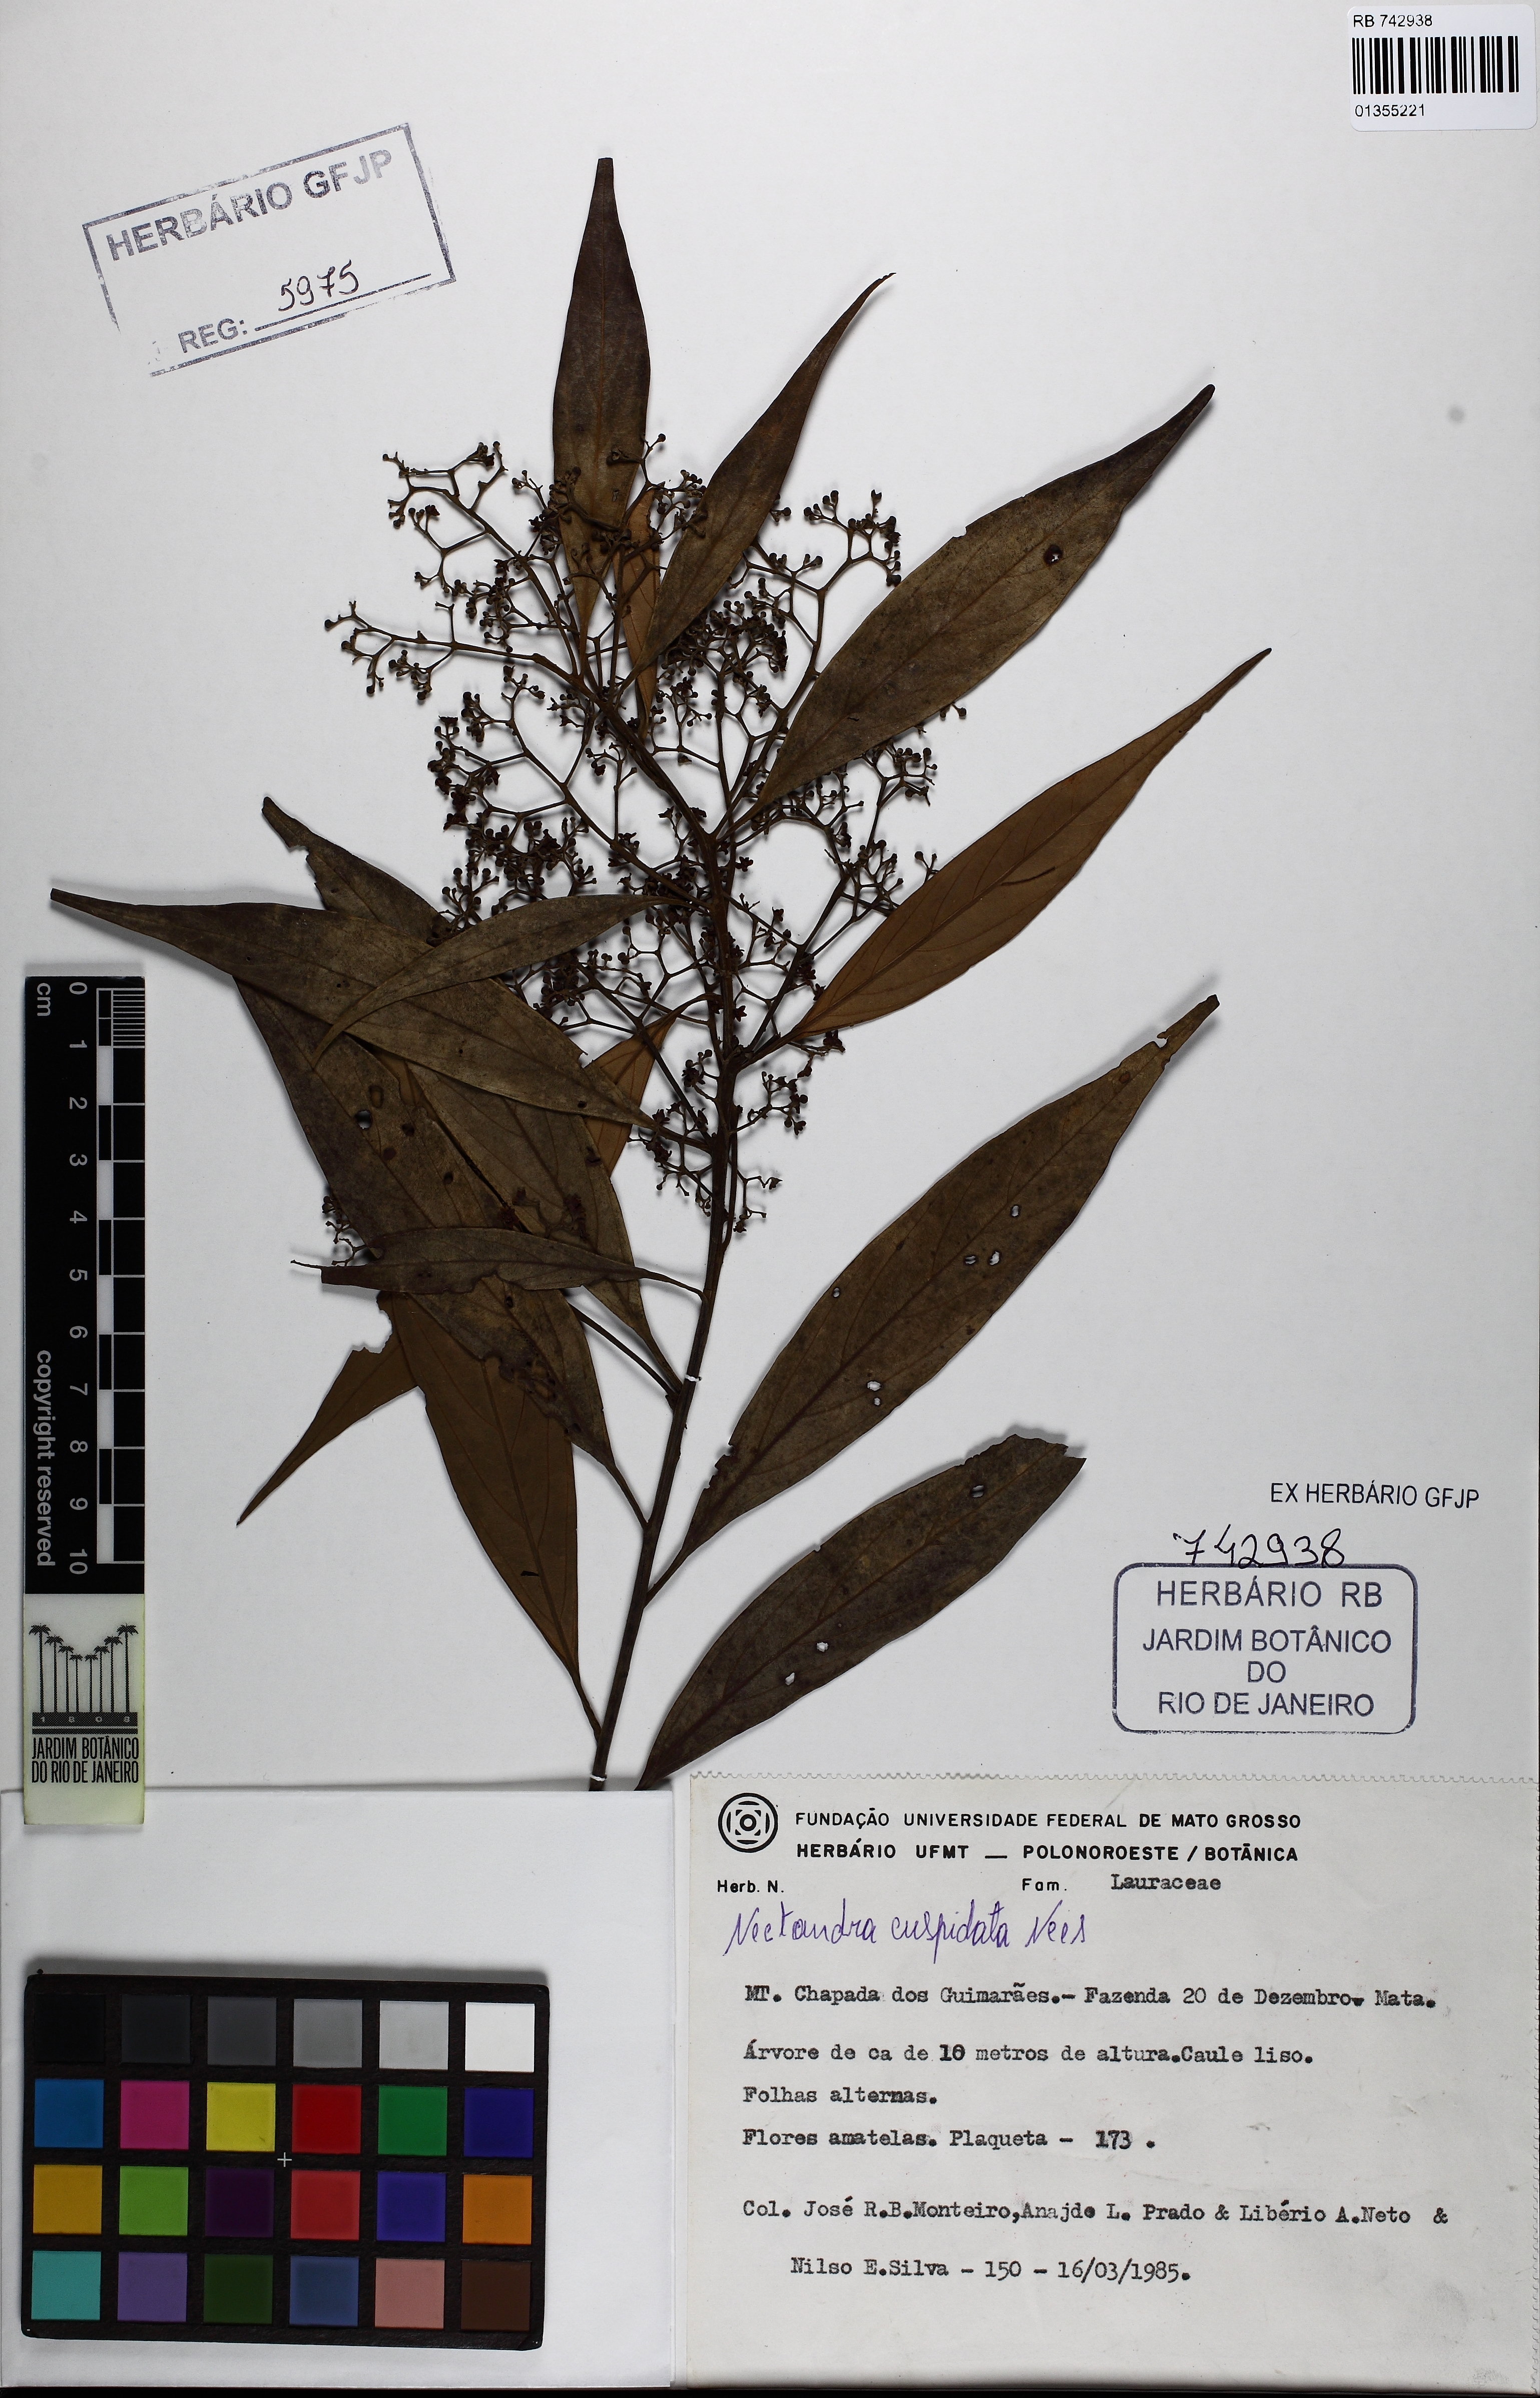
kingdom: Plantae
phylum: Tracheophyta
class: Magnoliopsida
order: Laurales
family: Lauraceae
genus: Nectandra
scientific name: Nectandra cuspidata
